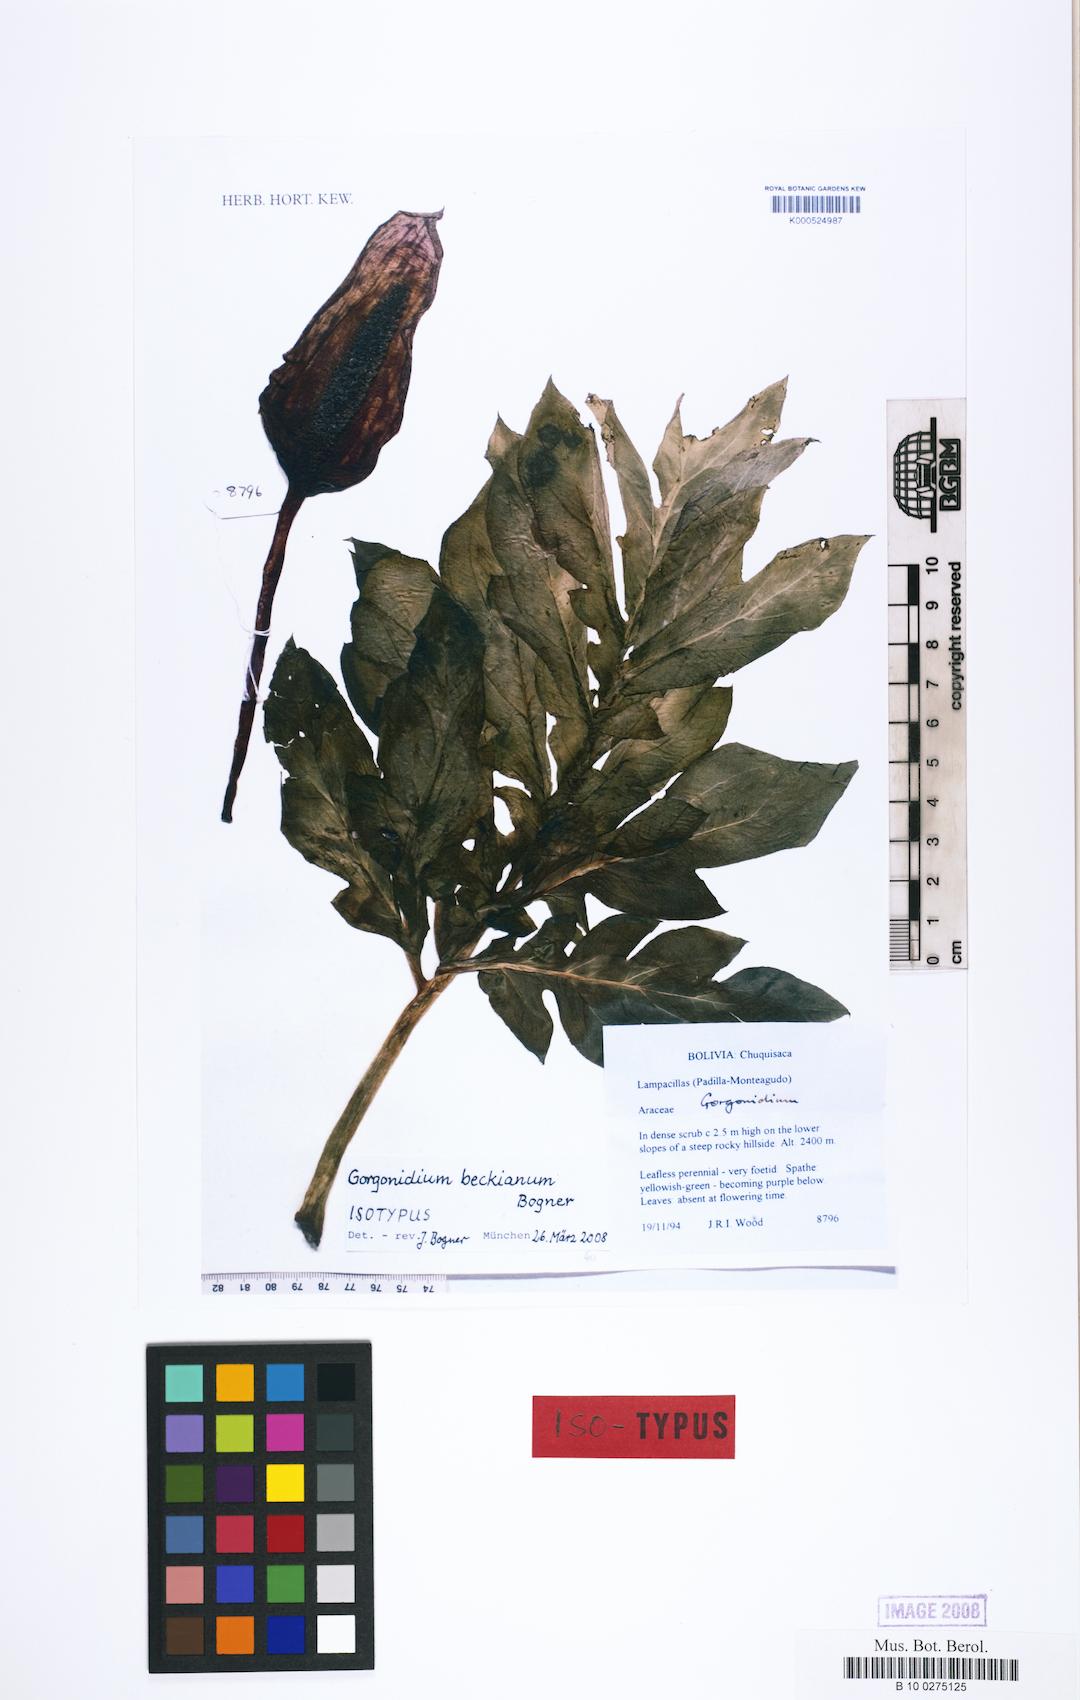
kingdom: Plantae
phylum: Tracheophyta
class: Liliopsida
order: Alismatales
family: Araceae
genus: Gorgonidium
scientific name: Gorgonidium beckianum
